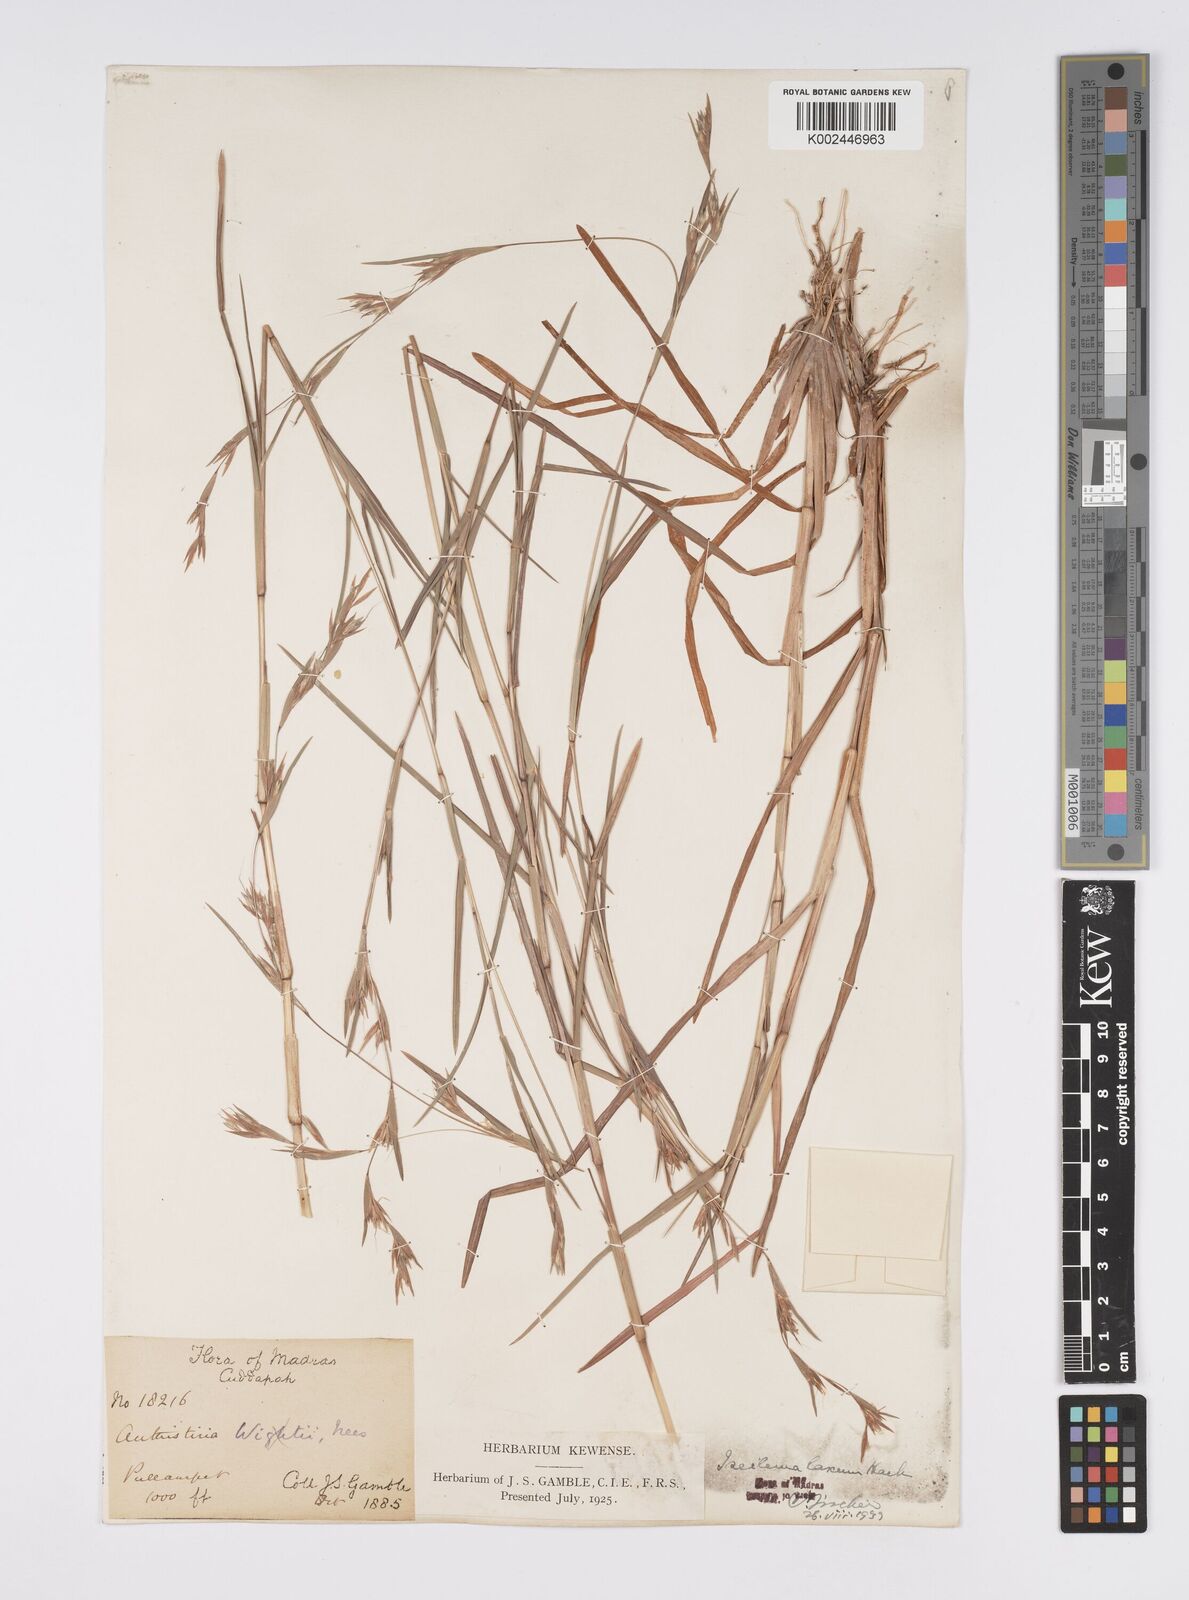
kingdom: Plantae
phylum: Tracheophyta
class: Liliopsida
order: Poales
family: Poaceae
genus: Iseilema
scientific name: Iseilema prostratum
